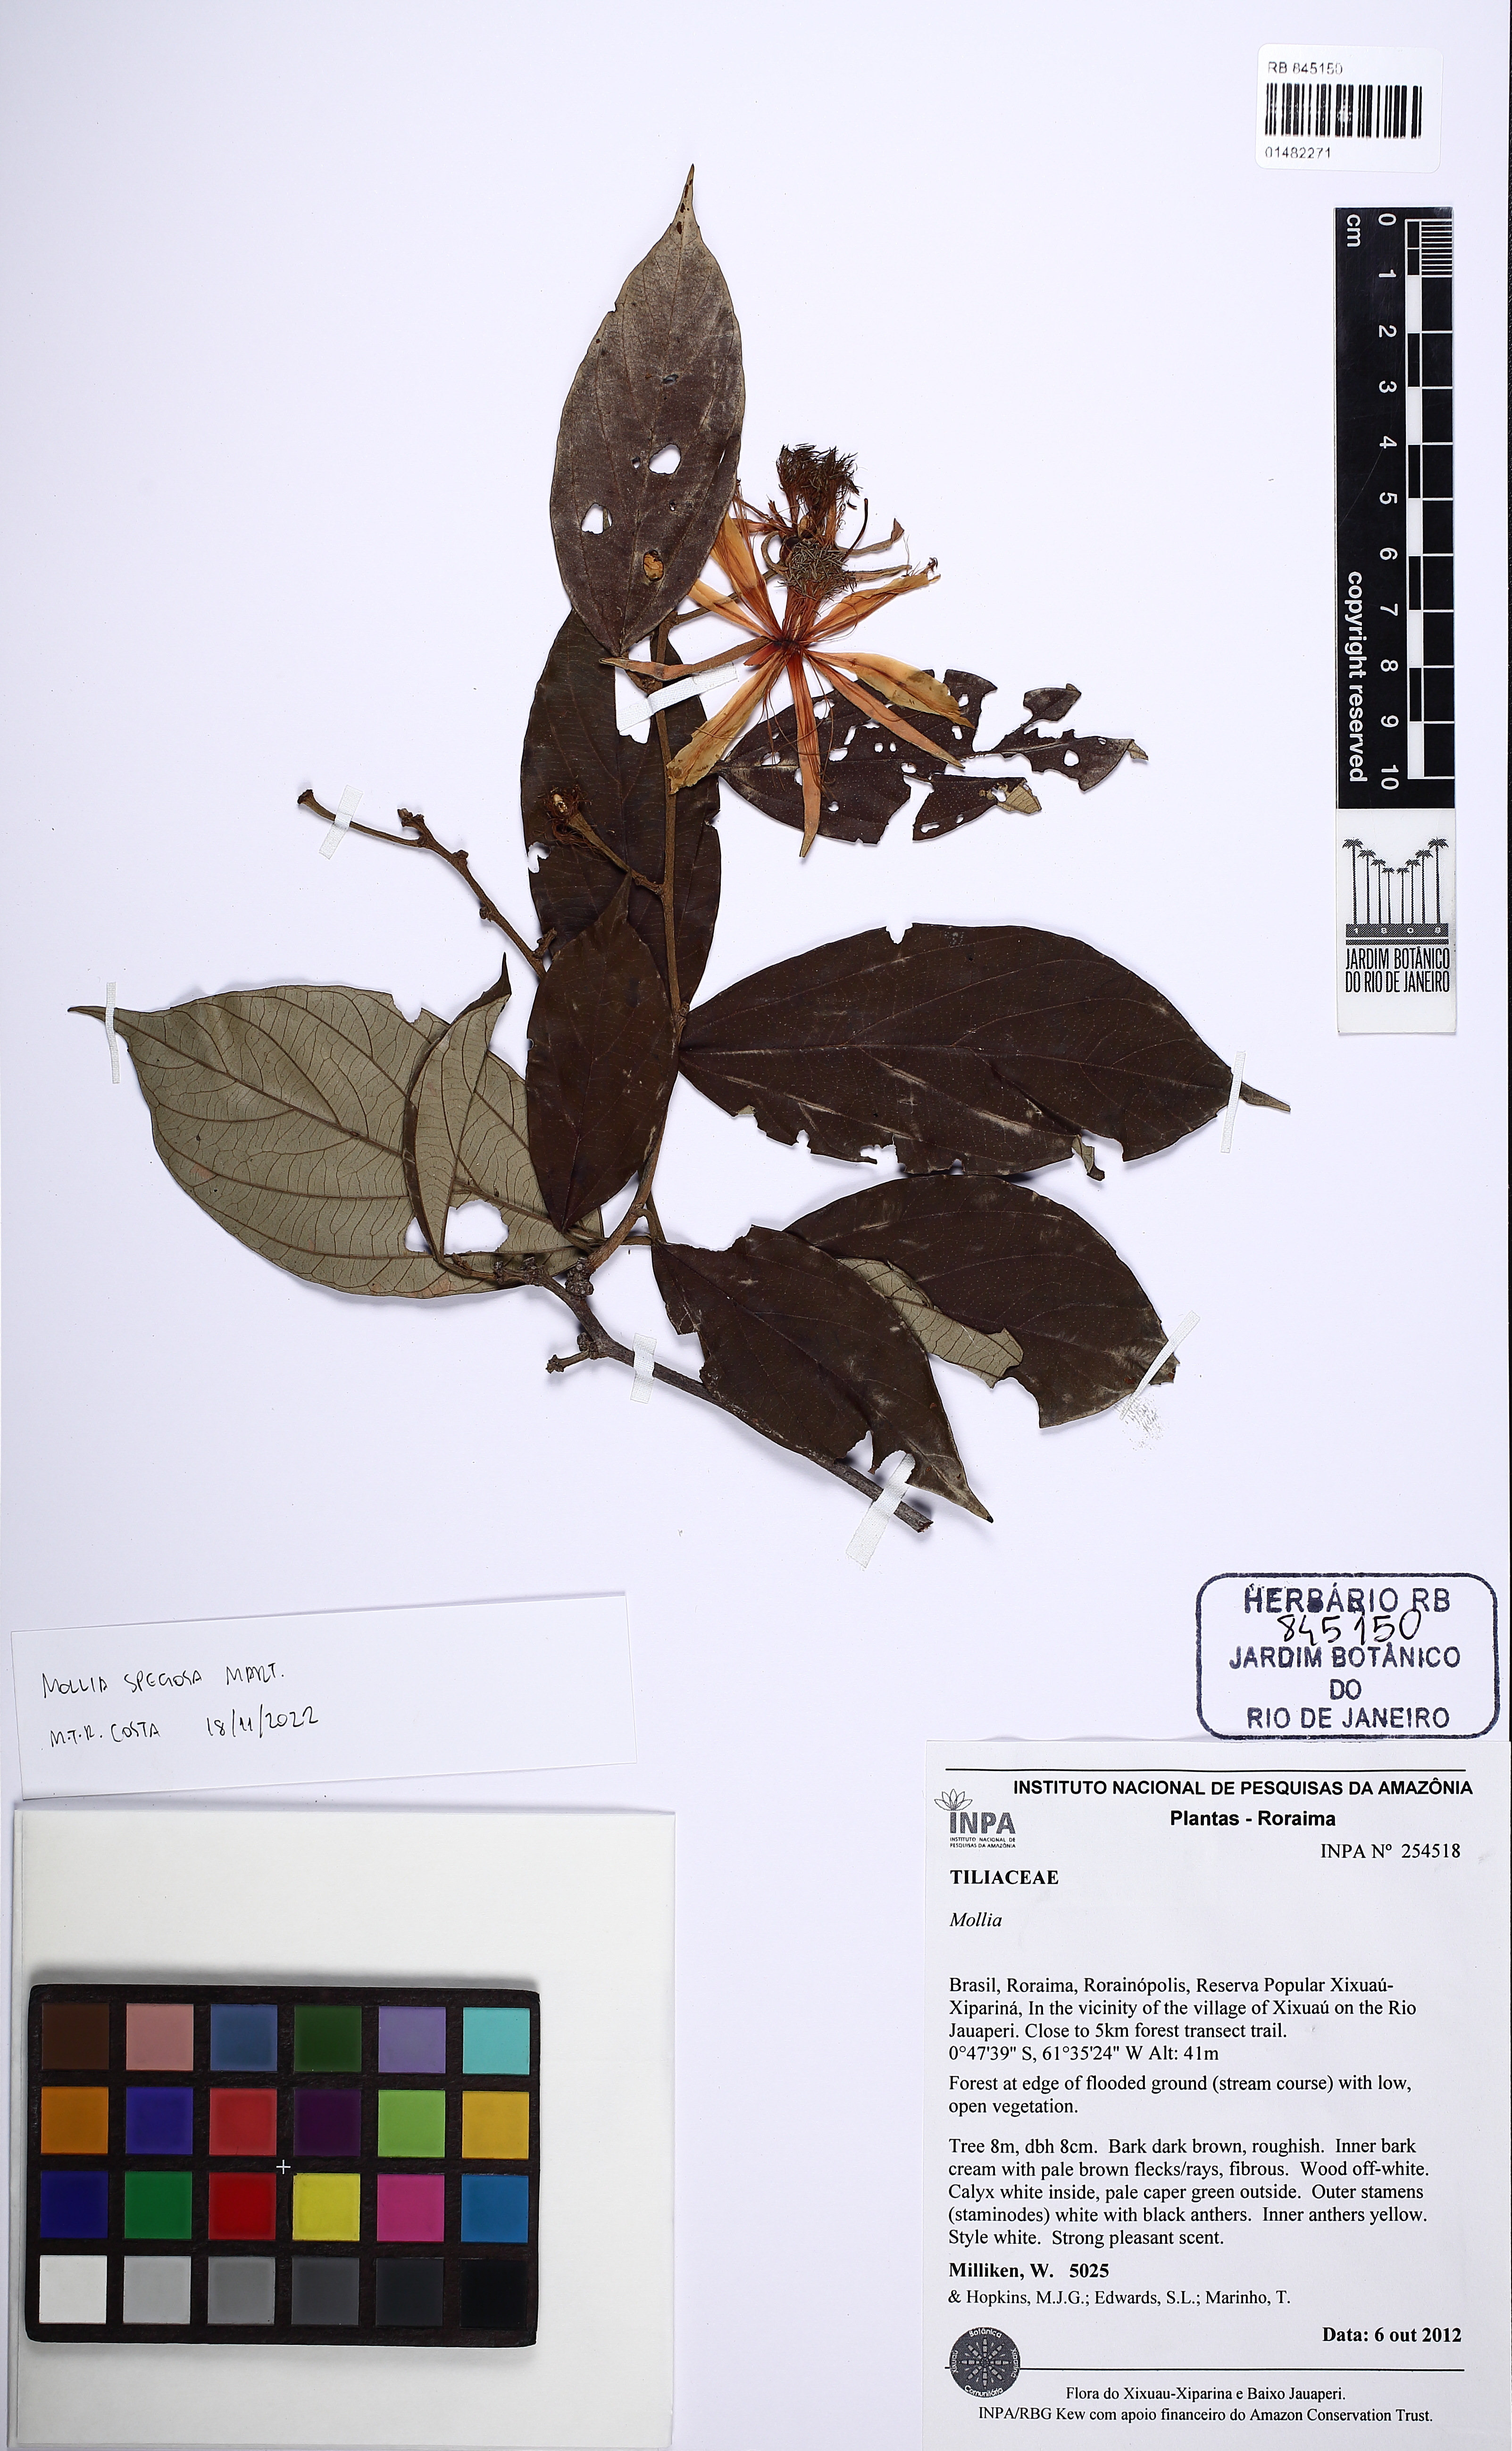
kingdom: Plantae
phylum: Tracheophyta
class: Magnoliopsida
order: Malvales
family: Malvaceae
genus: Mollia
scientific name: Mollia speciosa
